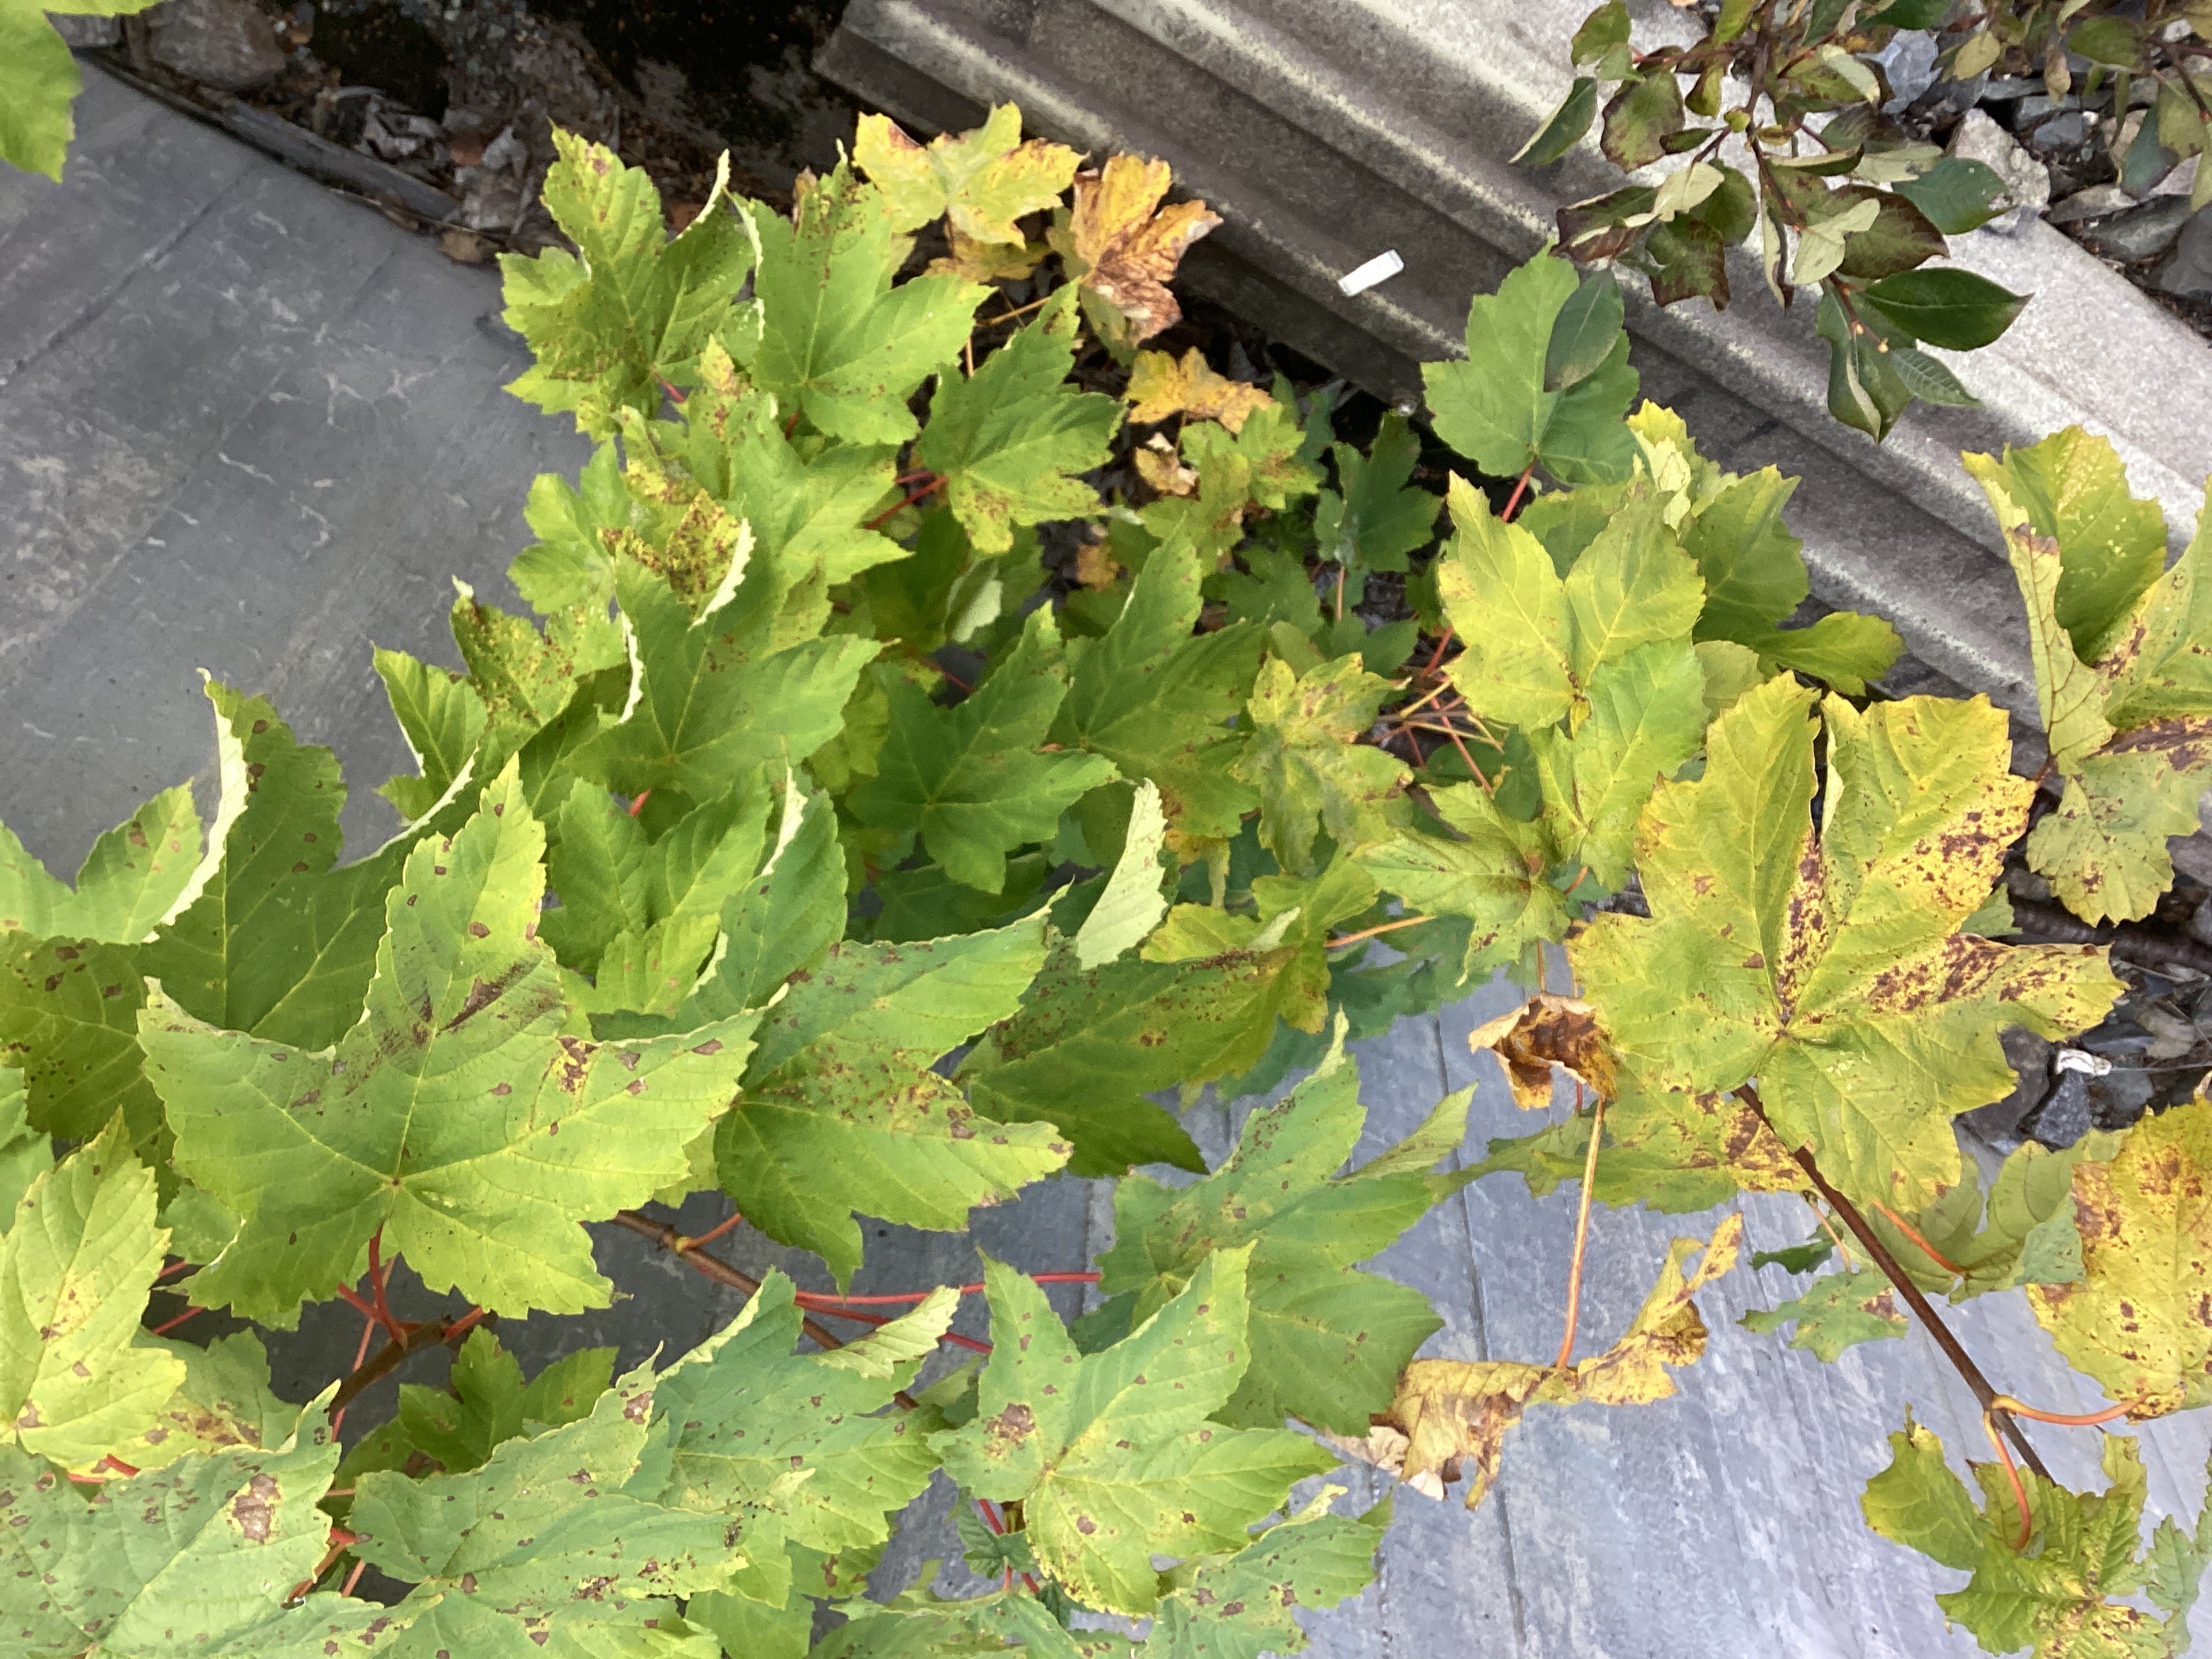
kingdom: Plantae
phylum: Tracheophyta
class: Magnoliopsida
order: Sapindales
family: Sapindaceae
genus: Acer
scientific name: Acer pseudoplatanus
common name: platanlønn
